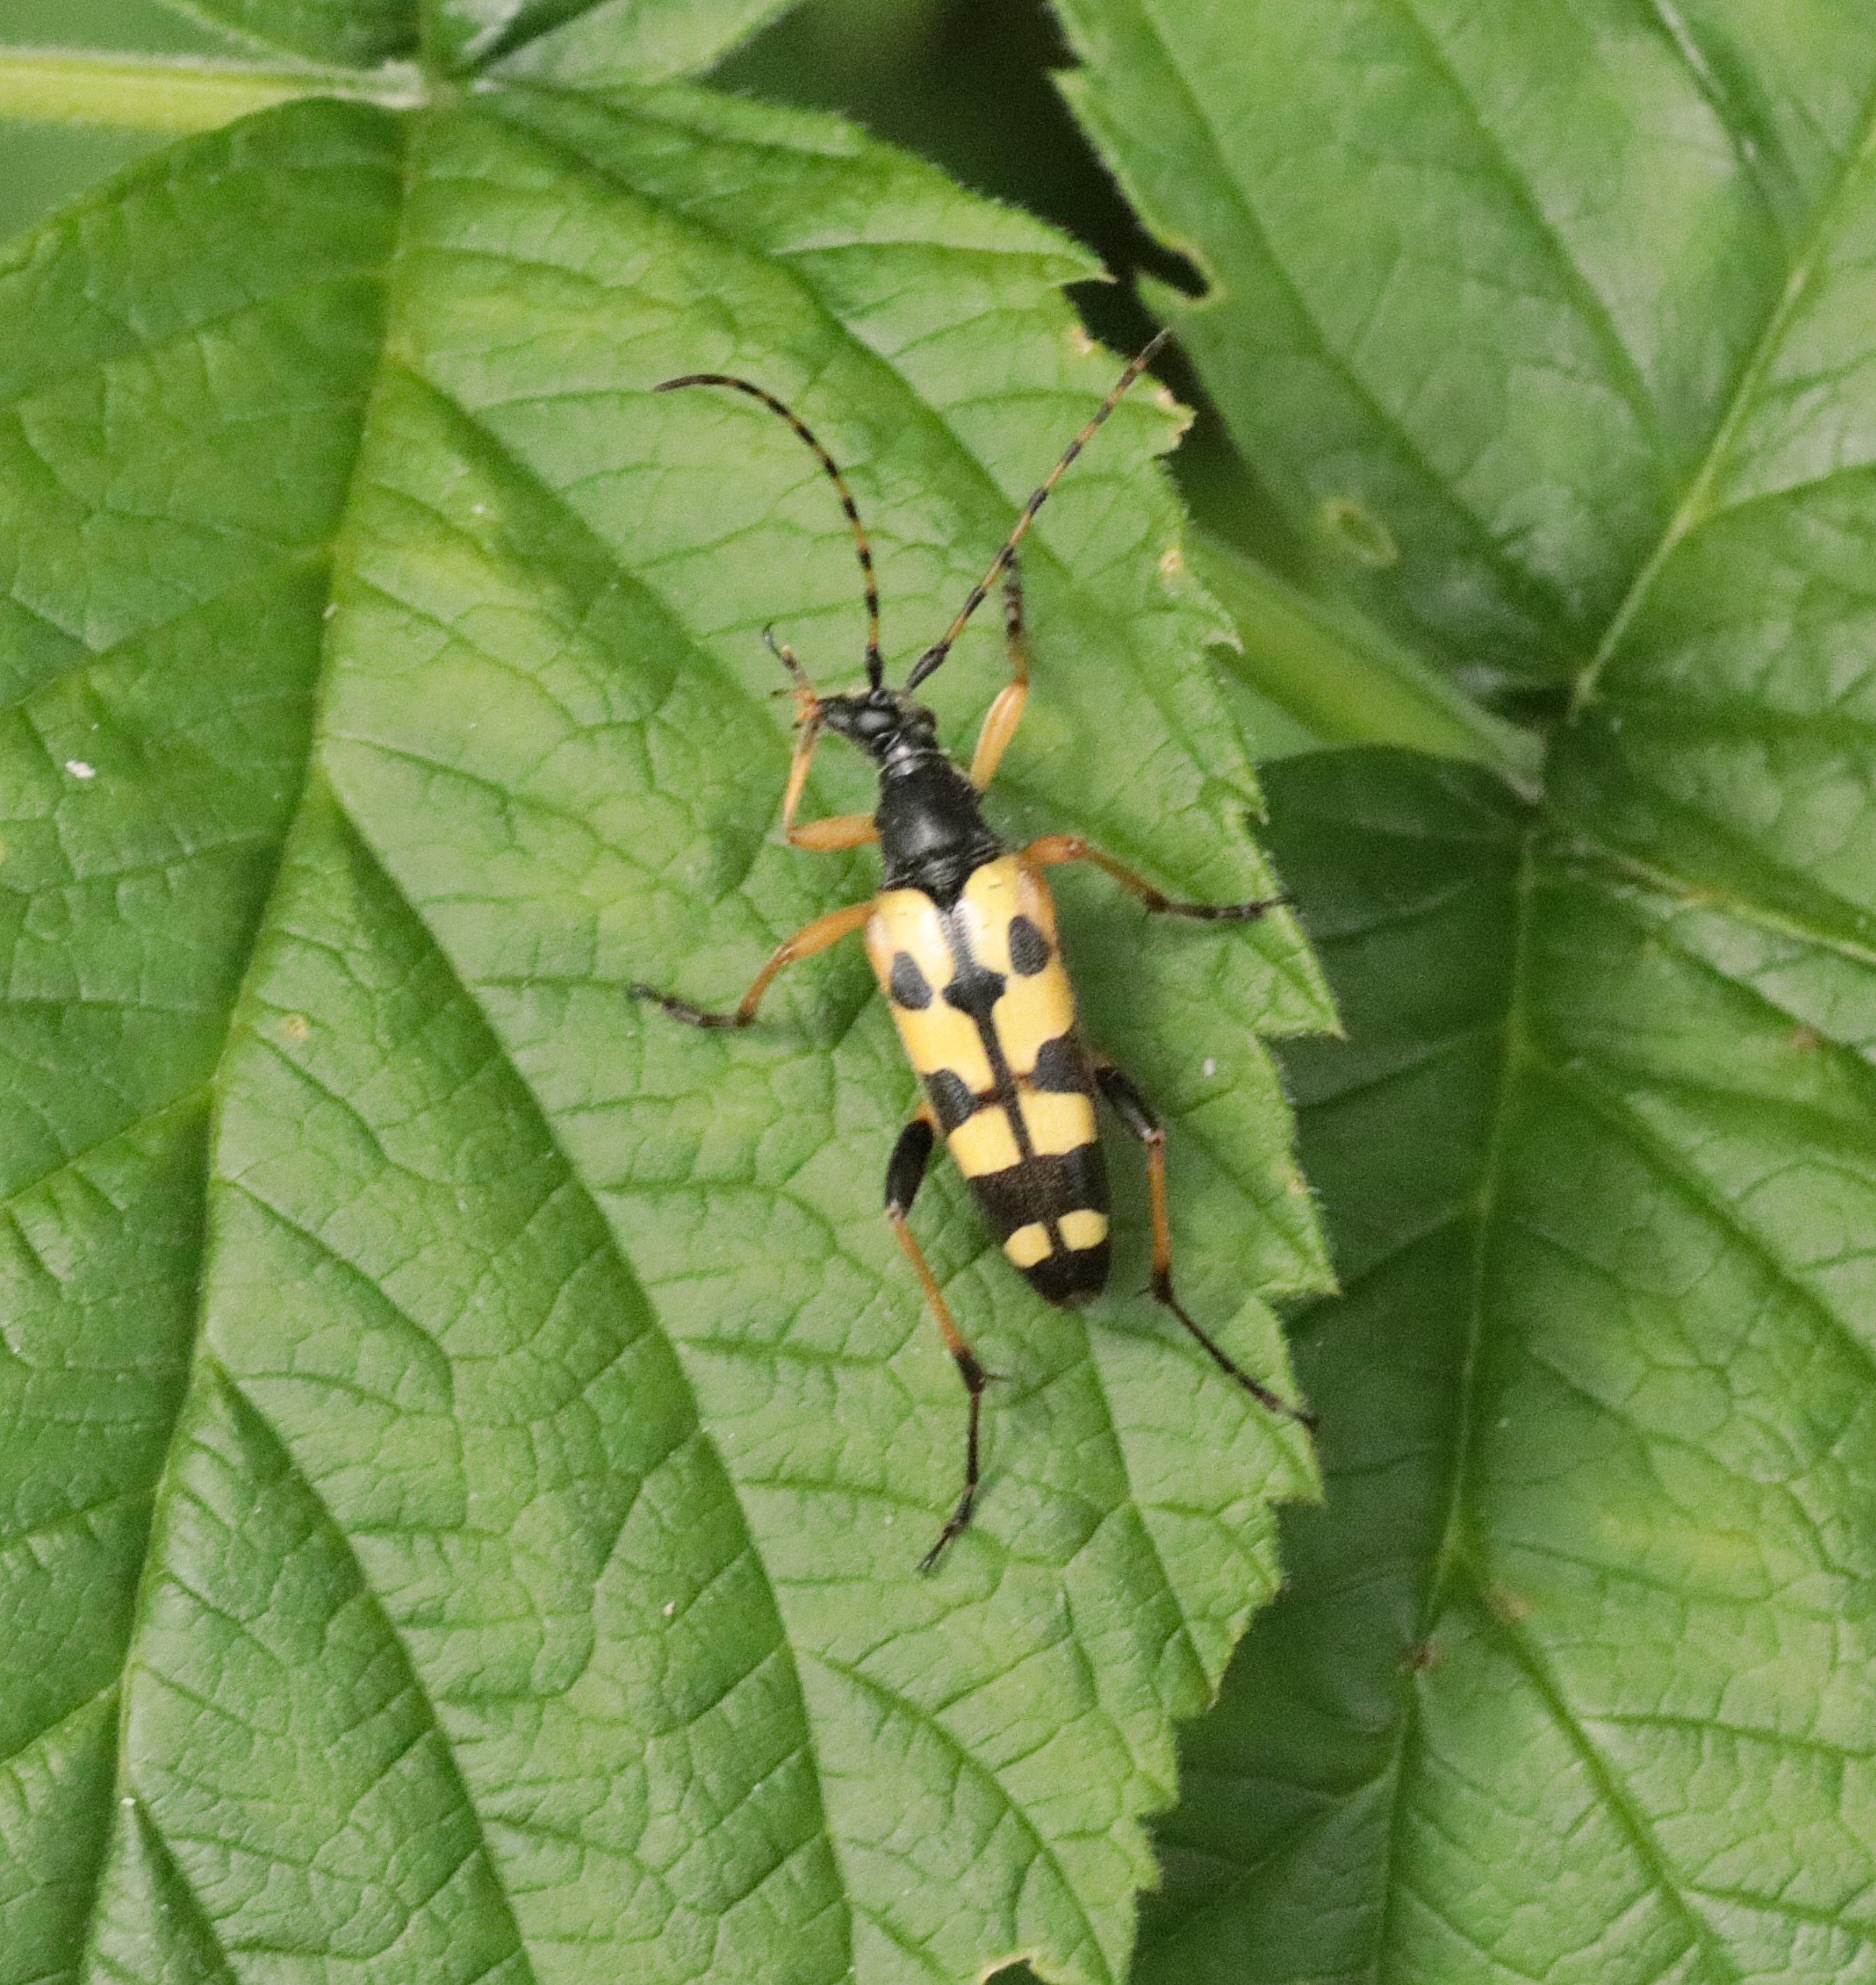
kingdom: Animalia
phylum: Arthropoda
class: Insecta
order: Coleoptera
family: Cerambycidae
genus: Rutpela
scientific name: Rutpela maculata
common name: Sydlig blomsterbuk
